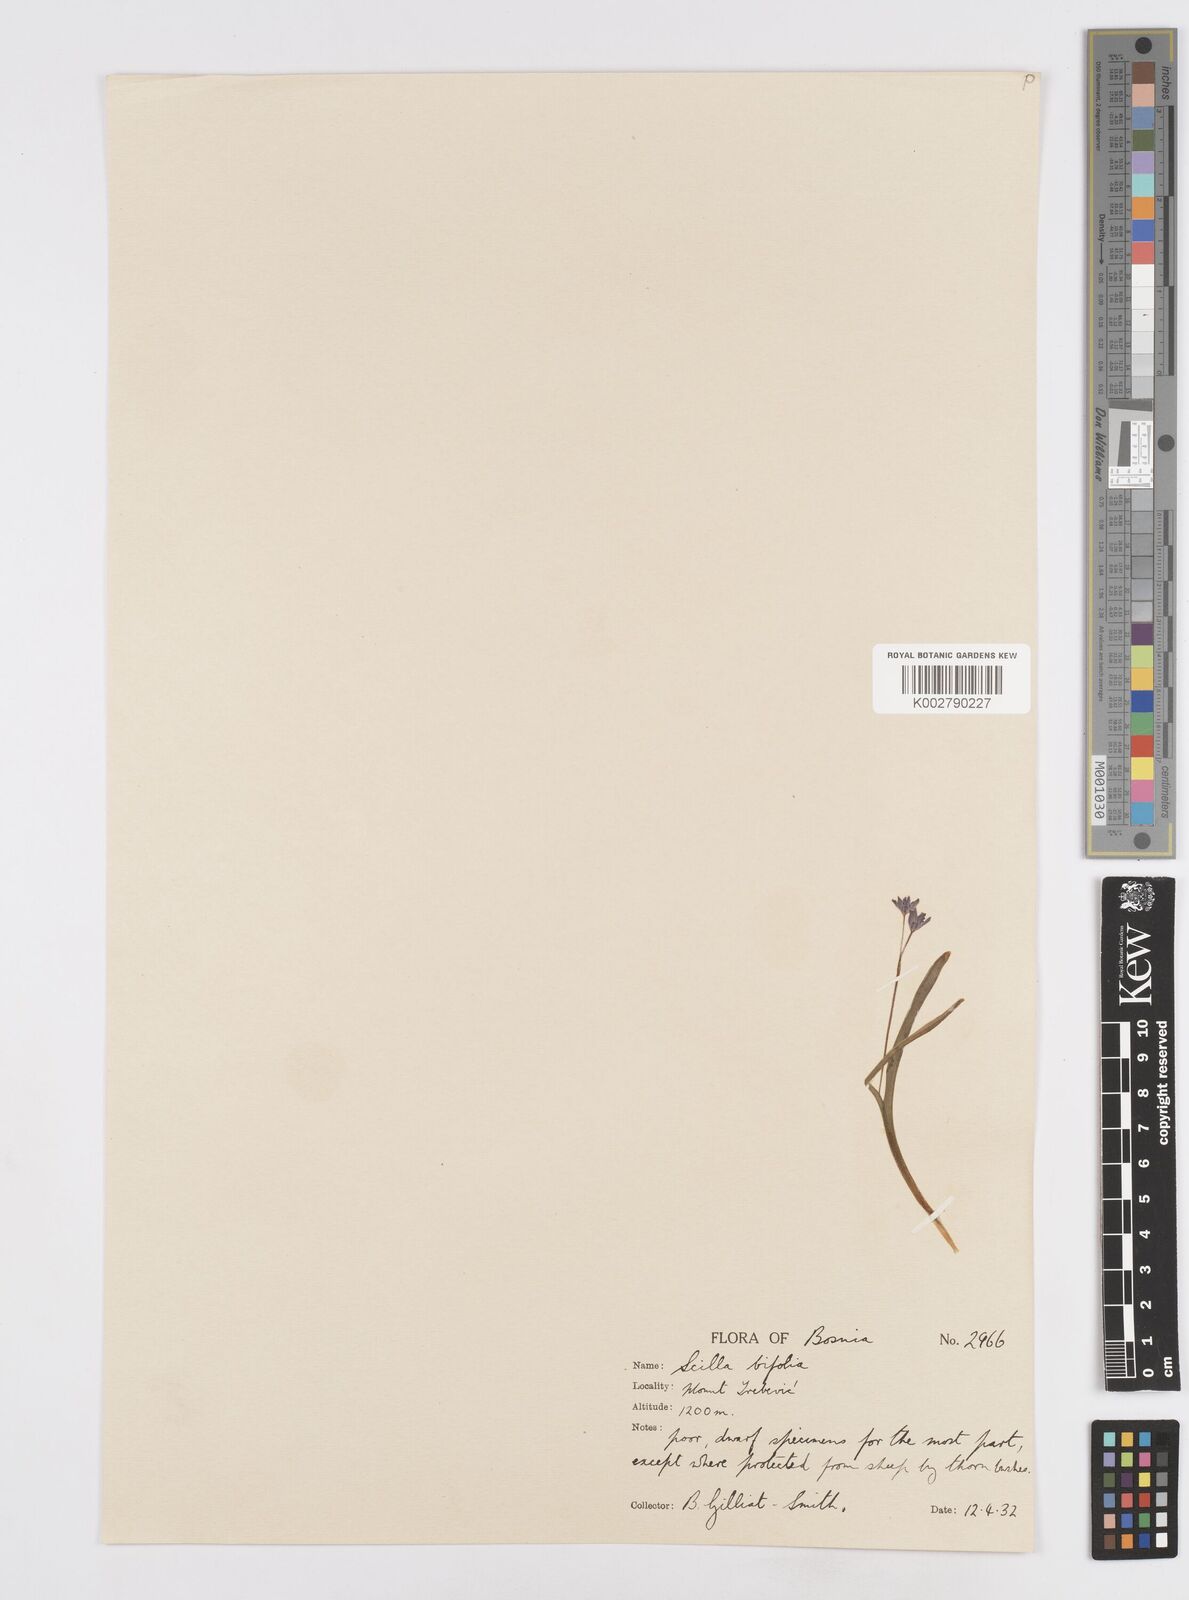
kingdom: Plantae
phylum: Tracheophyta
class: Liliopsida
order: Asparagales
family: Asparagaceae
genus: Scilla
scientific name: Scilla bifolia
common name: Alpine squill
